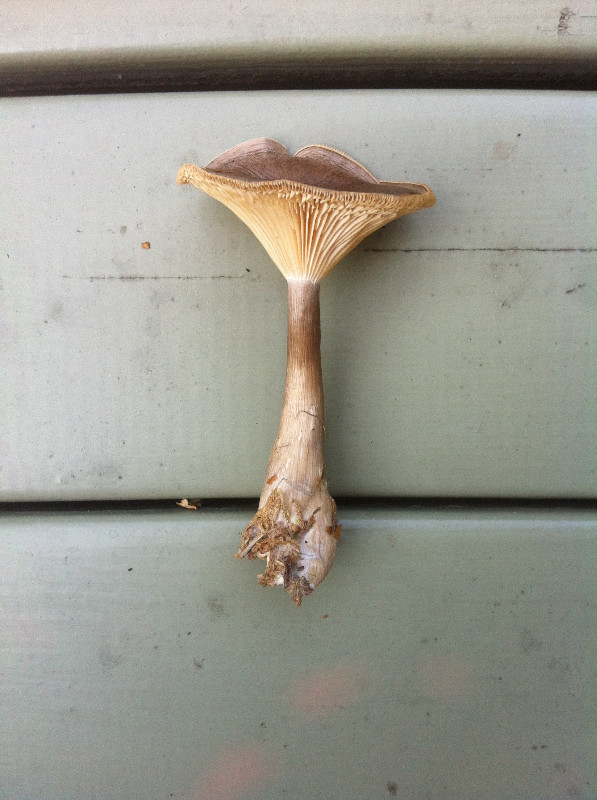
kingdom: Fungi
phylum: Basidiomycota
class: Agaricomycetes
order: Agaricales
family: Hygrophoraceae
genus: Ampulloclitocybe
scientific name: Ampulloclitocybe clavipes
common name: køllefod
